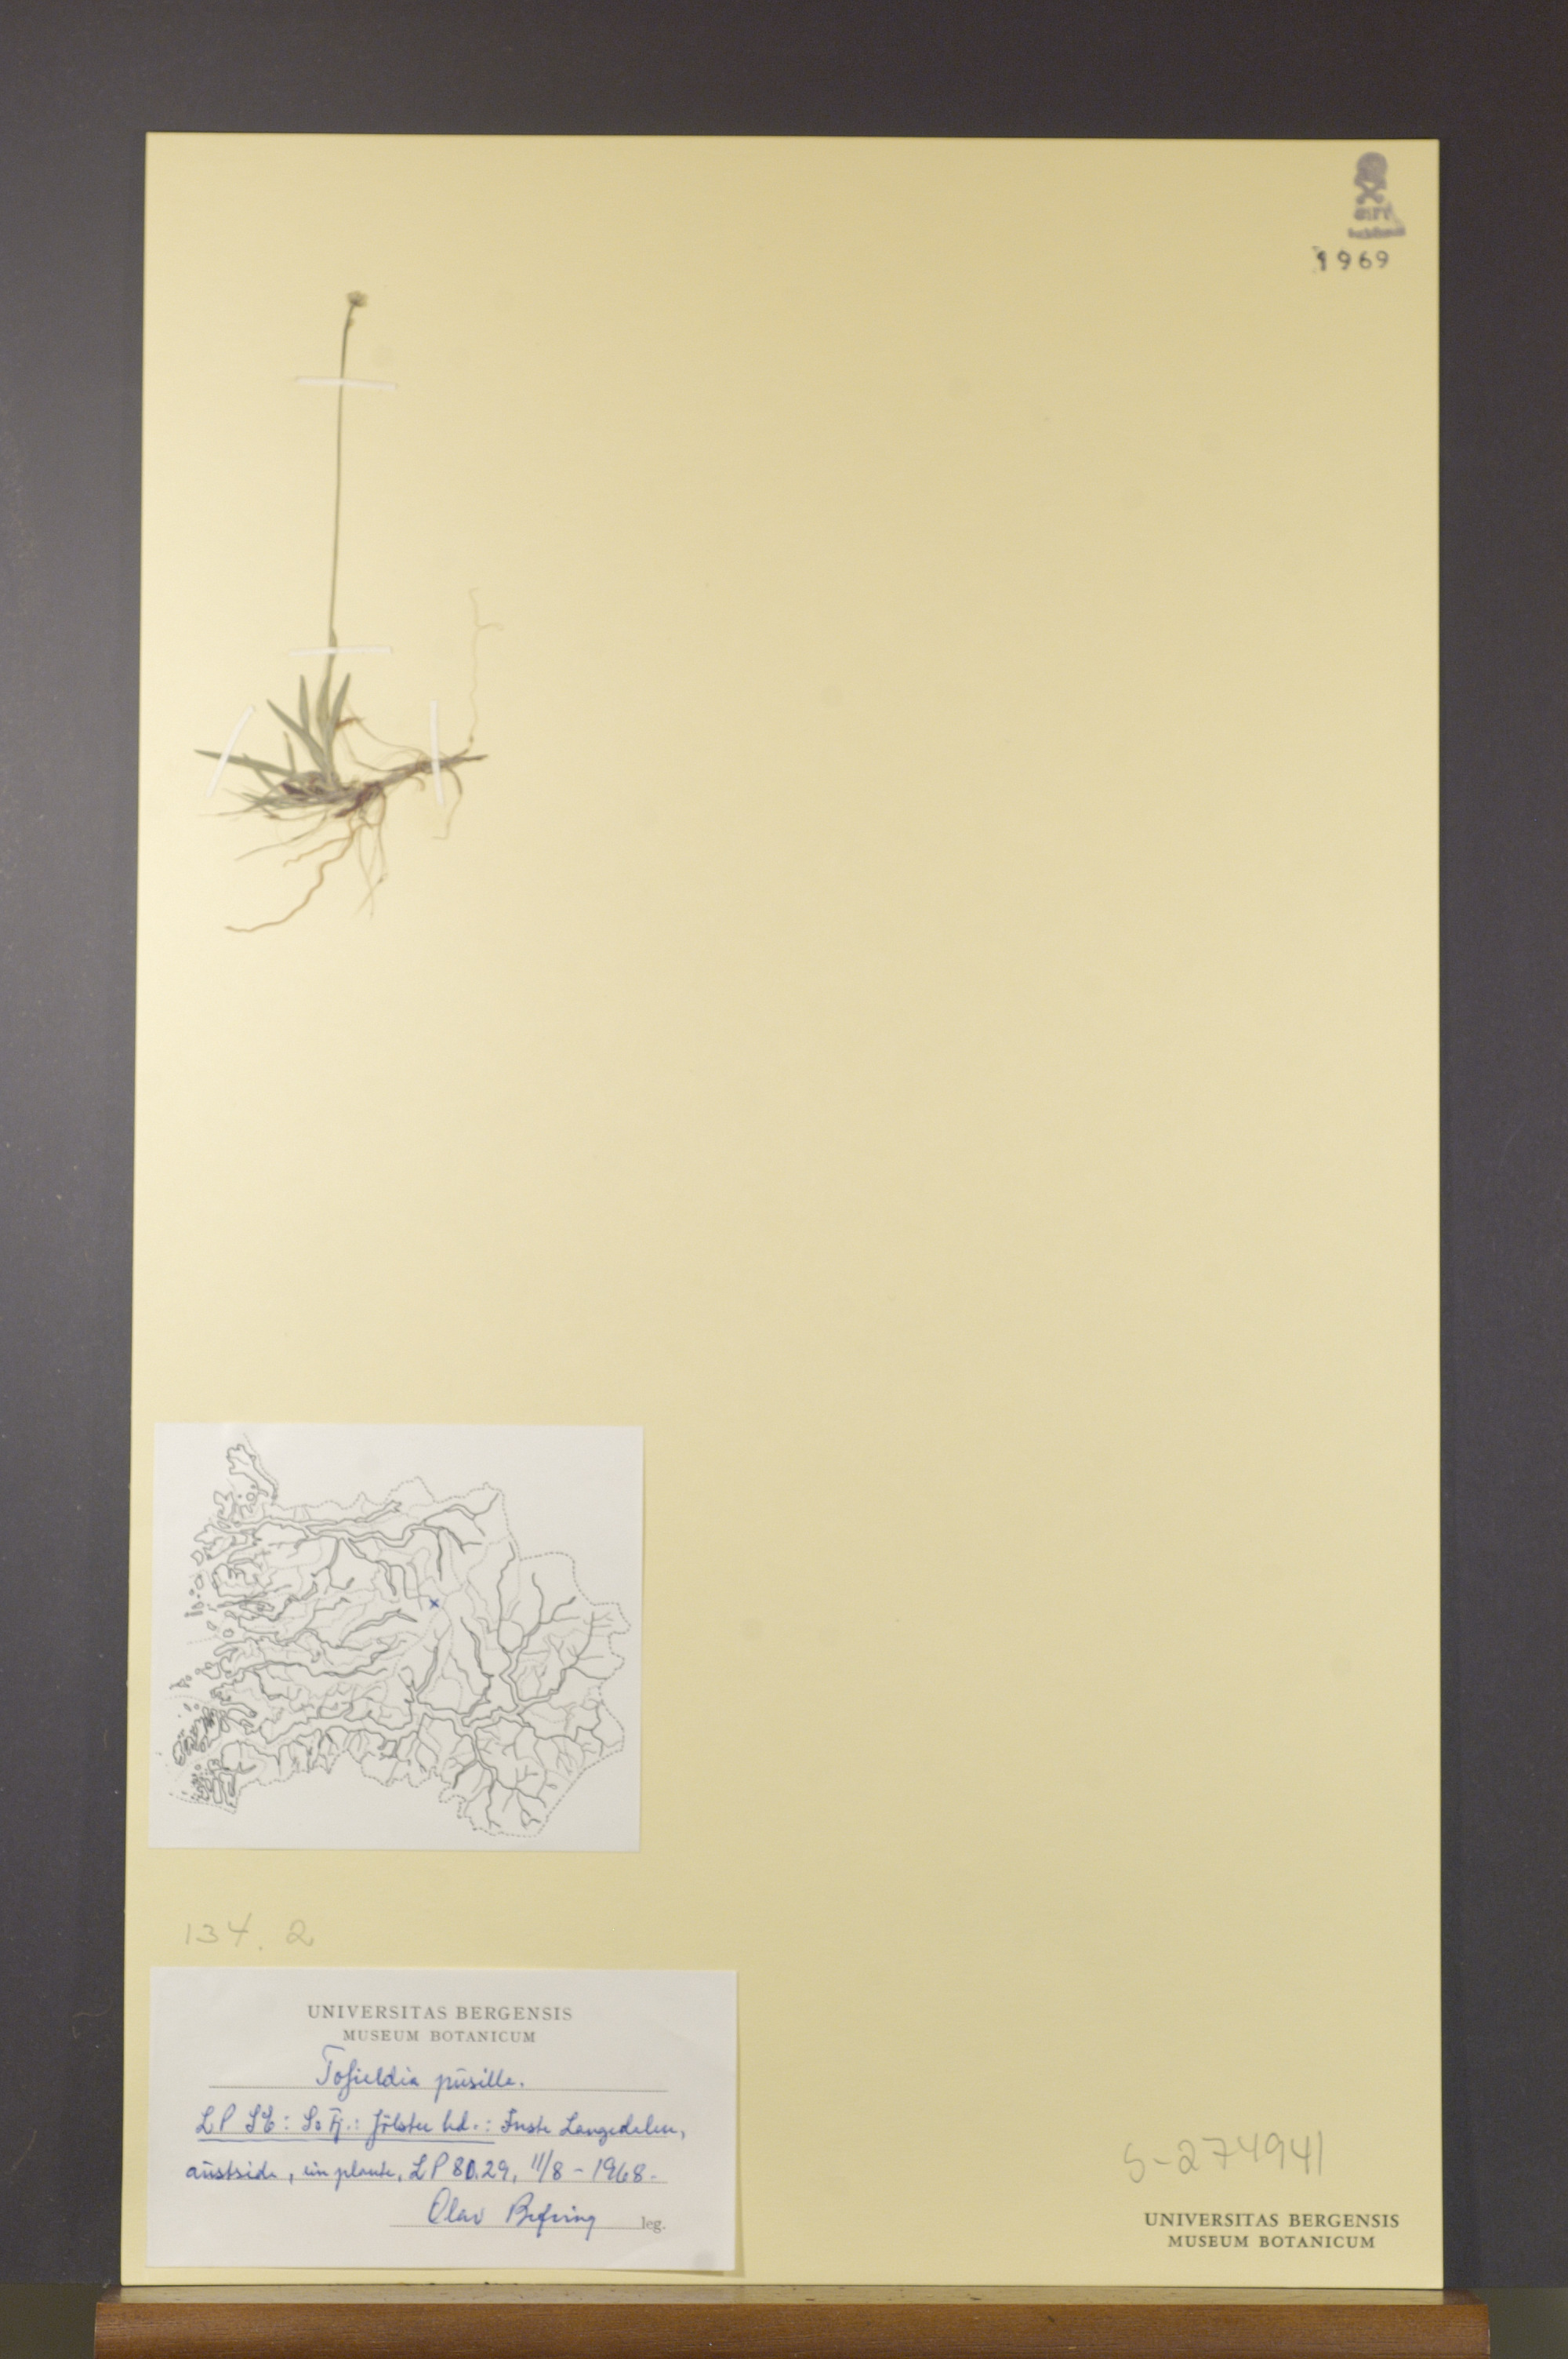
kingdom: Plantae
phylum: Tracheophyta
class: Liliopsida
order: Alismatales
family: Tofieldiaceae
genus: Tofieldia
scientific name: Tofieldia pusilla
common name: Scottish false asphodel
